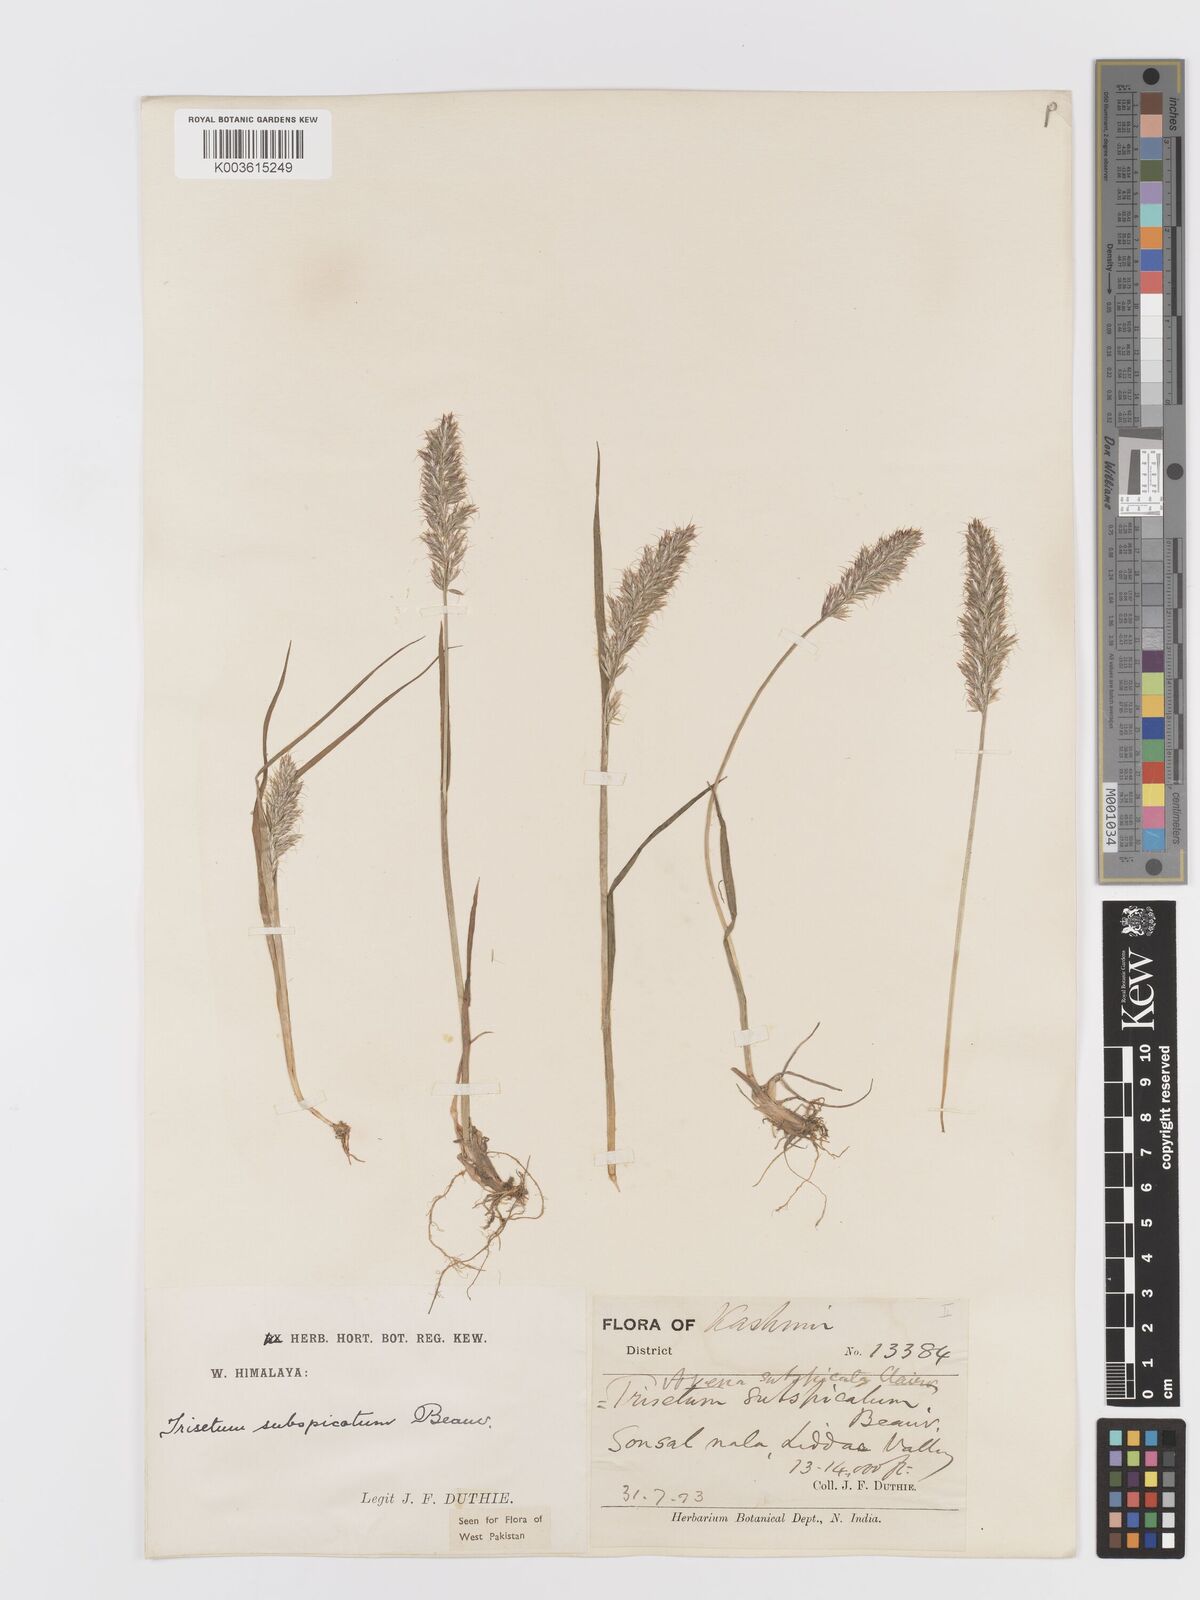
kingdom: Plantae
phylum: Tracheophyta
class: Liliopsida
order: Poales
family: Poaceae
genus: Koeleria
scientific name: Koeleria spicata
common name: Mountain trisetum
